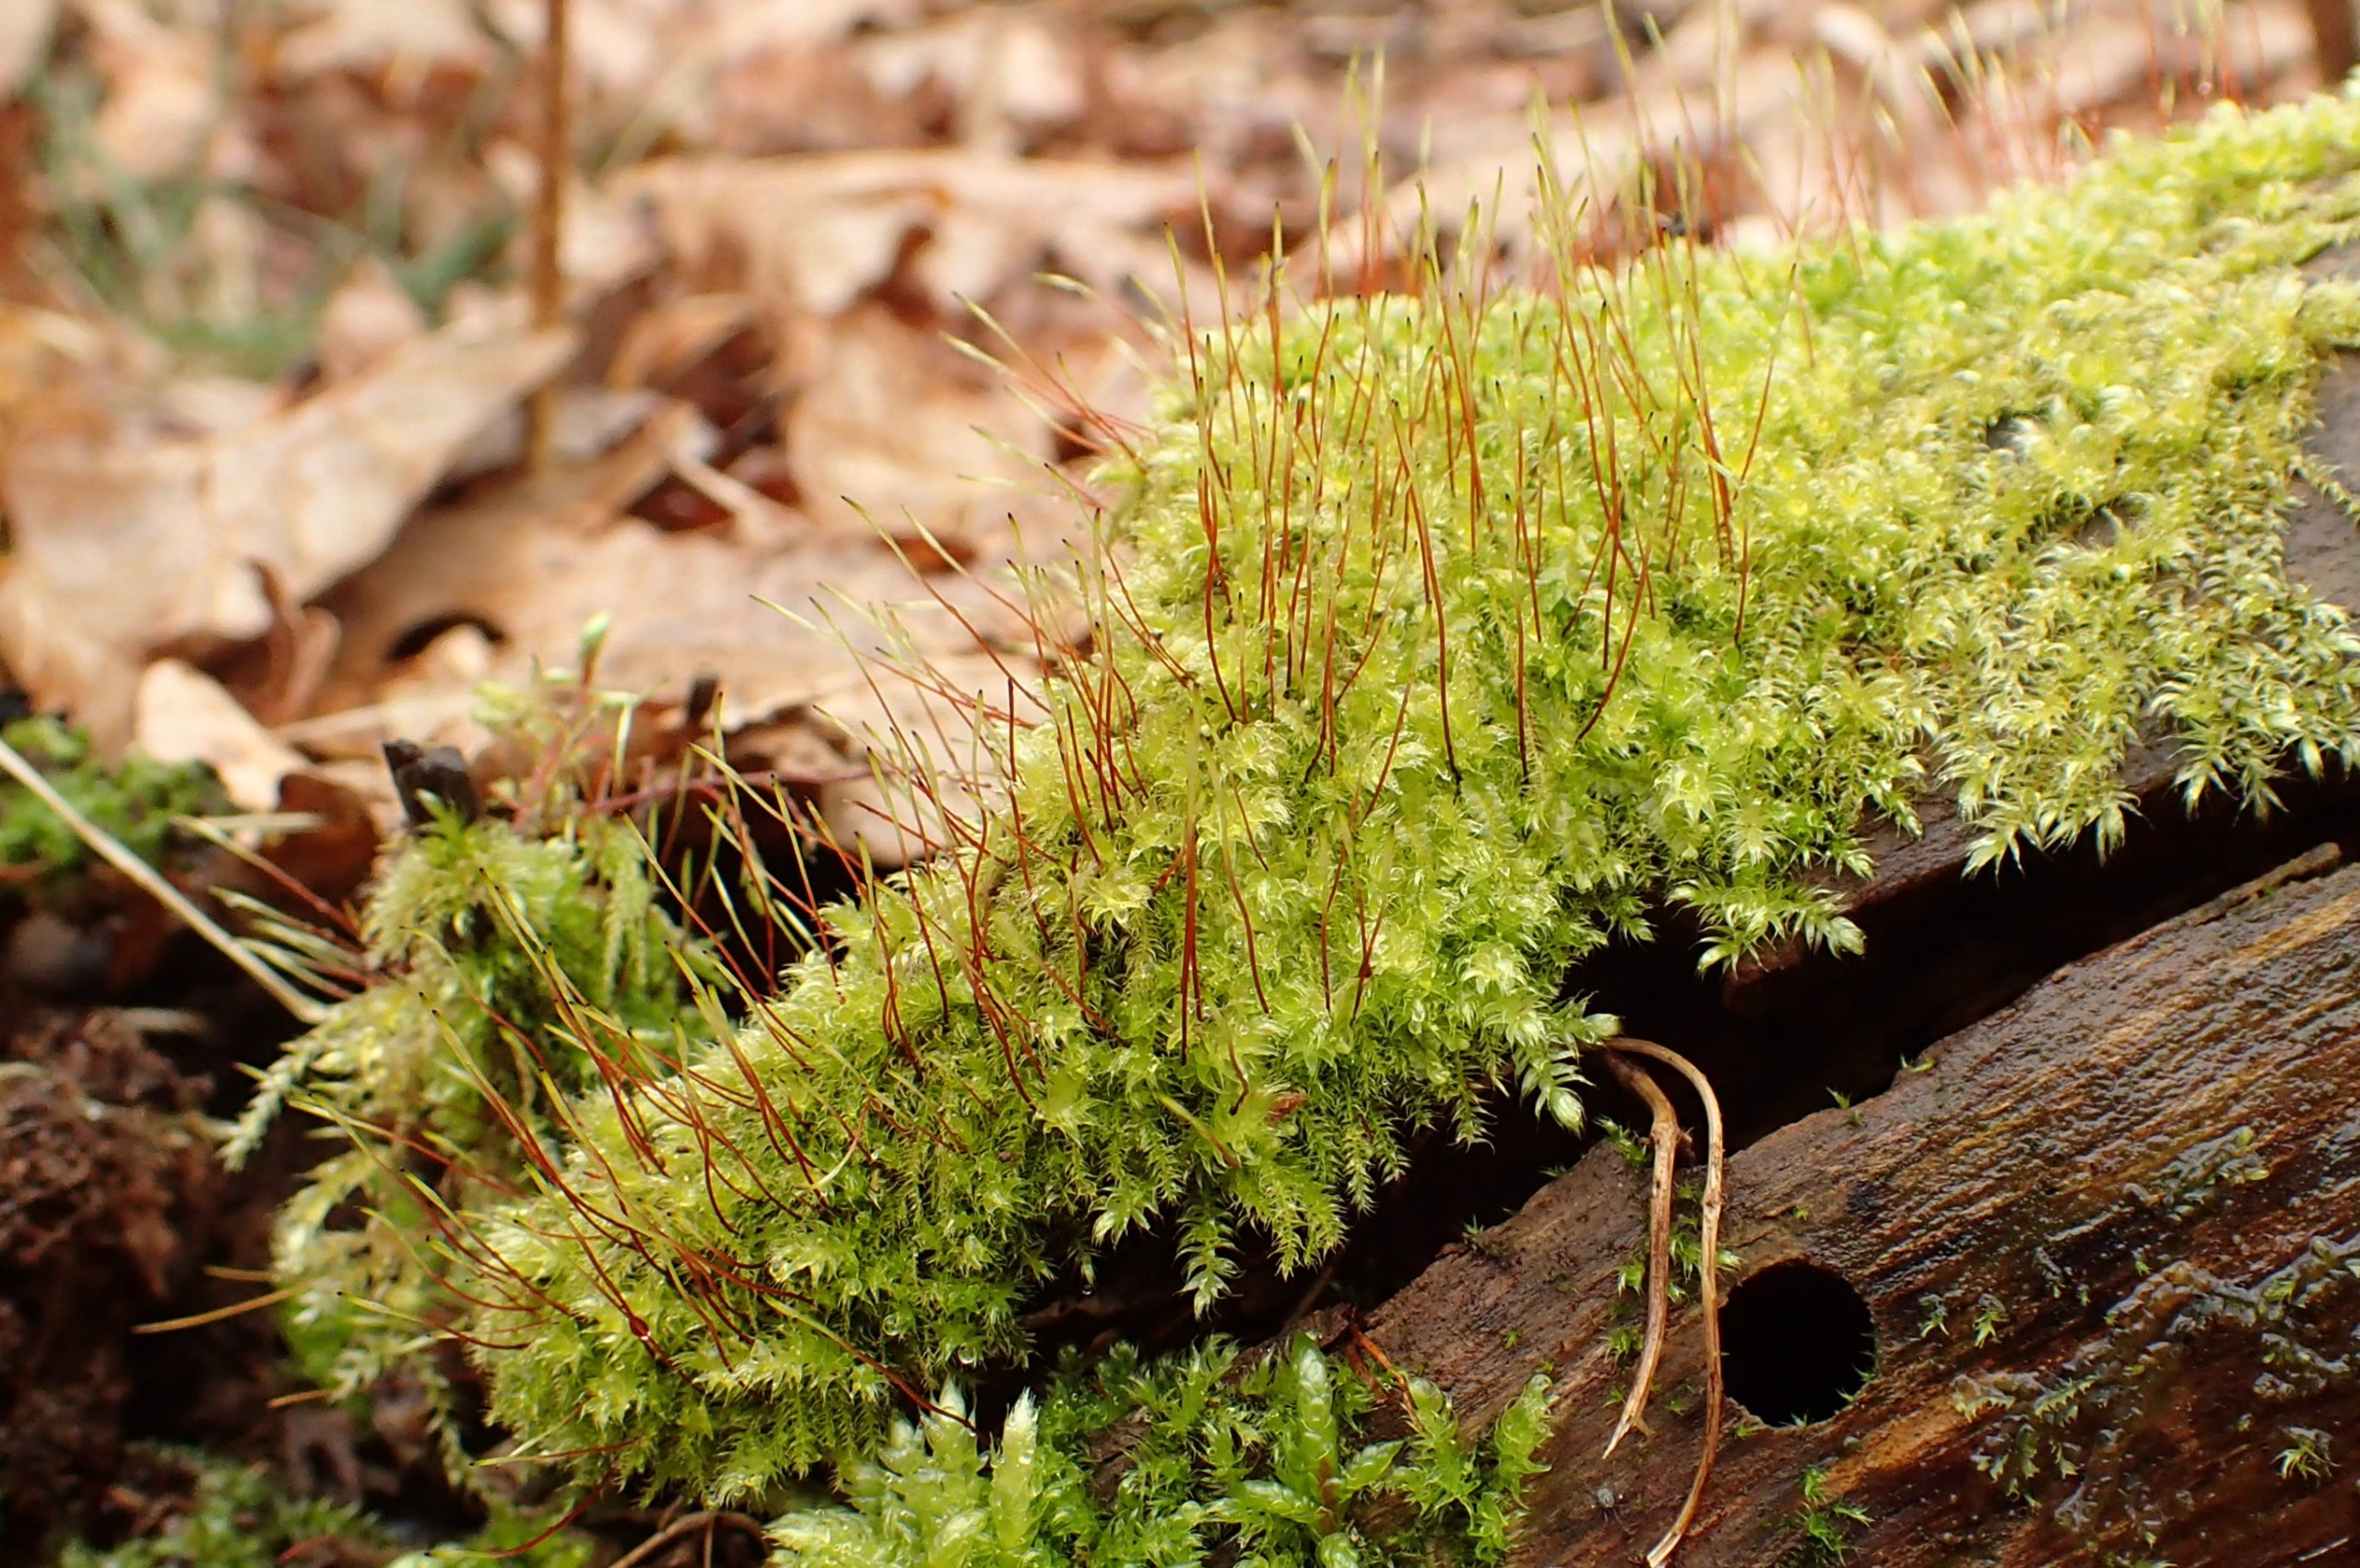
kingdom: Plantae
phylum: Bryophyta
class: Bryopsida
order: Hypnales
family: Plagiotheciaceae
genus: Herzogiella
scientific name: Herzogiella seligeri
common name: Stub-pølsekapsel
